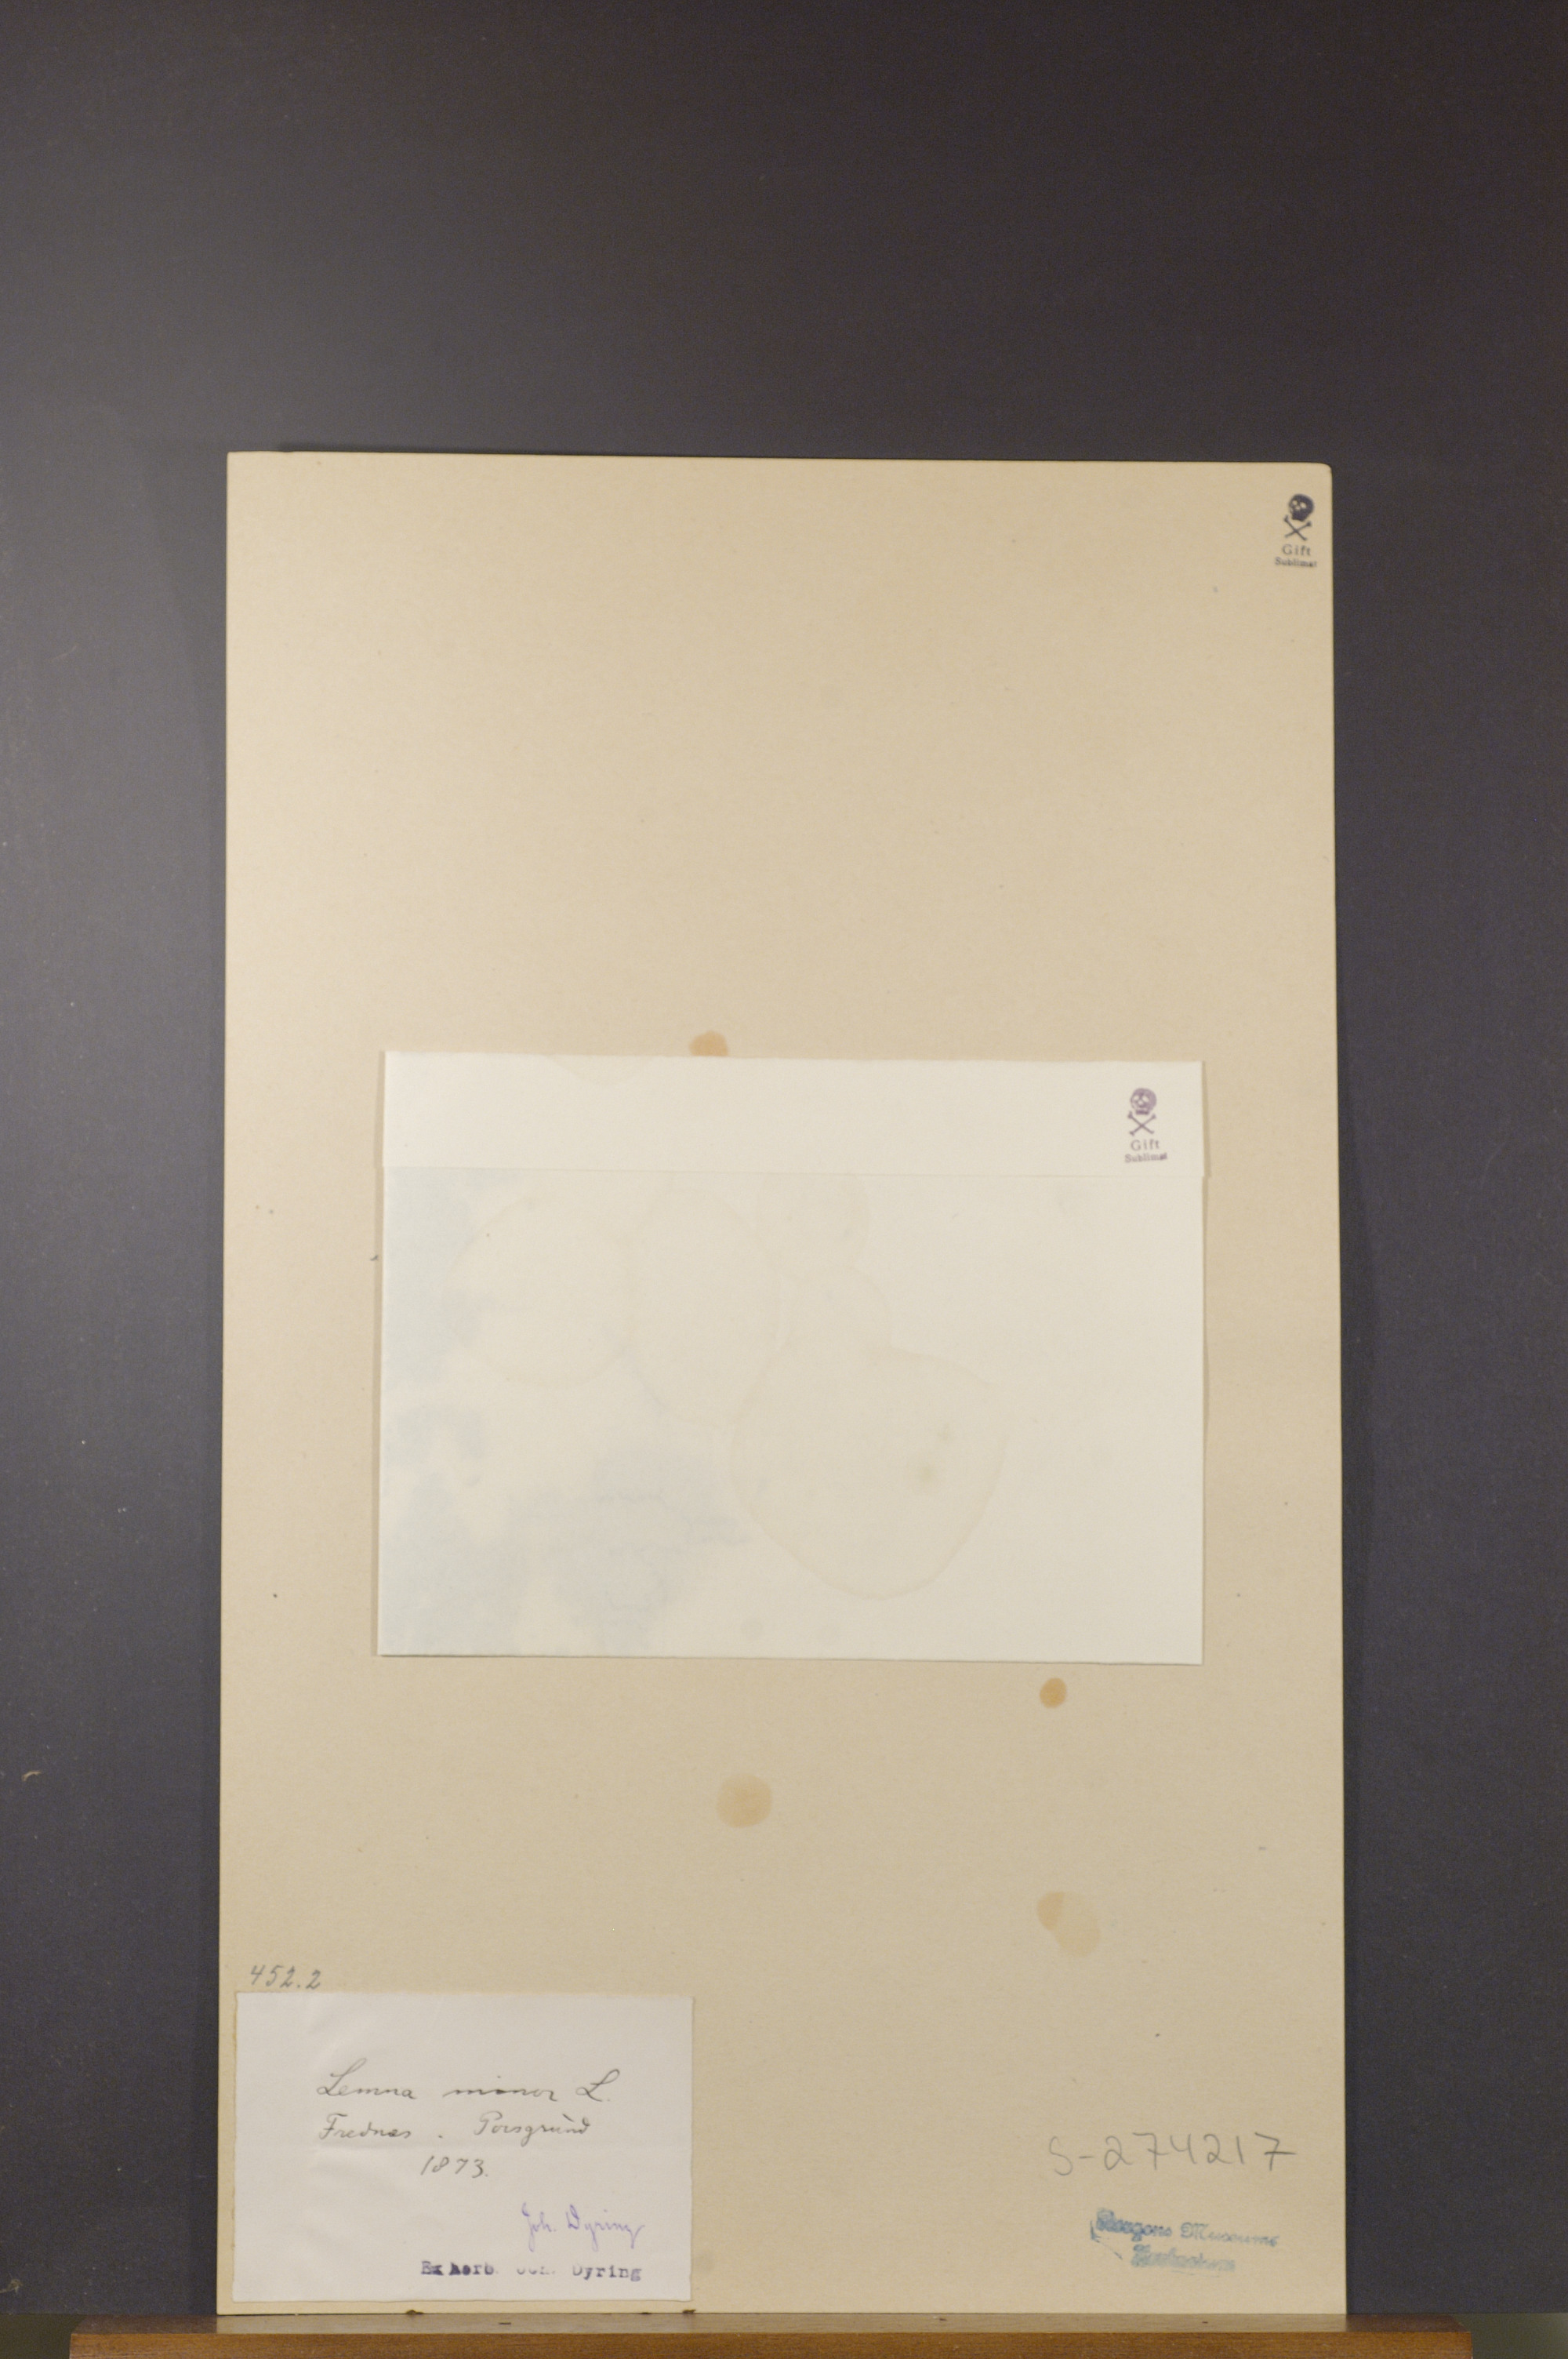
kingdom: Plantae
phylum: Tracheophyta
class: Liliopsida
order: Alismatales
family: Araceae
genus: Lemna
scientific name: Lemna minor
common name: Common duckweed
